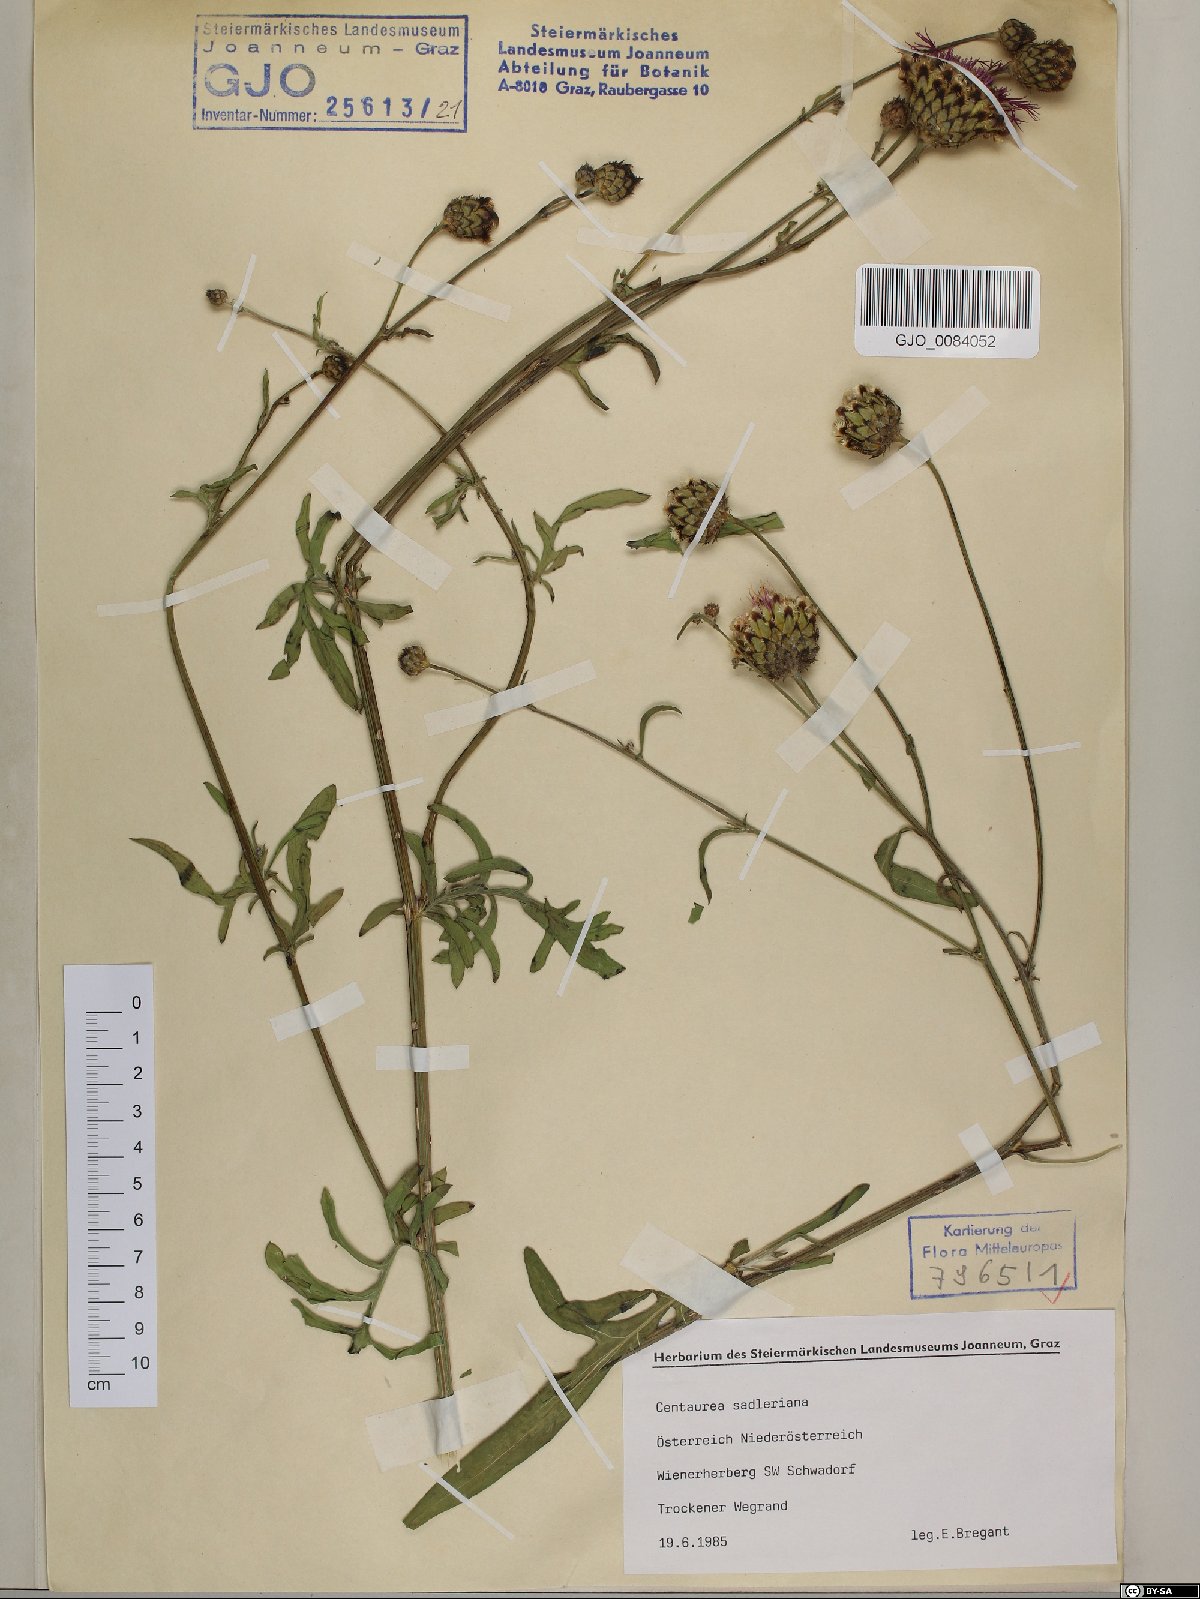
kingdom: Plantae
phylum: Tracheophyta
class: Magnoliopsida
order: Asterales
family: Asteraceae
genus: Centaurea
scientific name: Centaurea sadleriana
